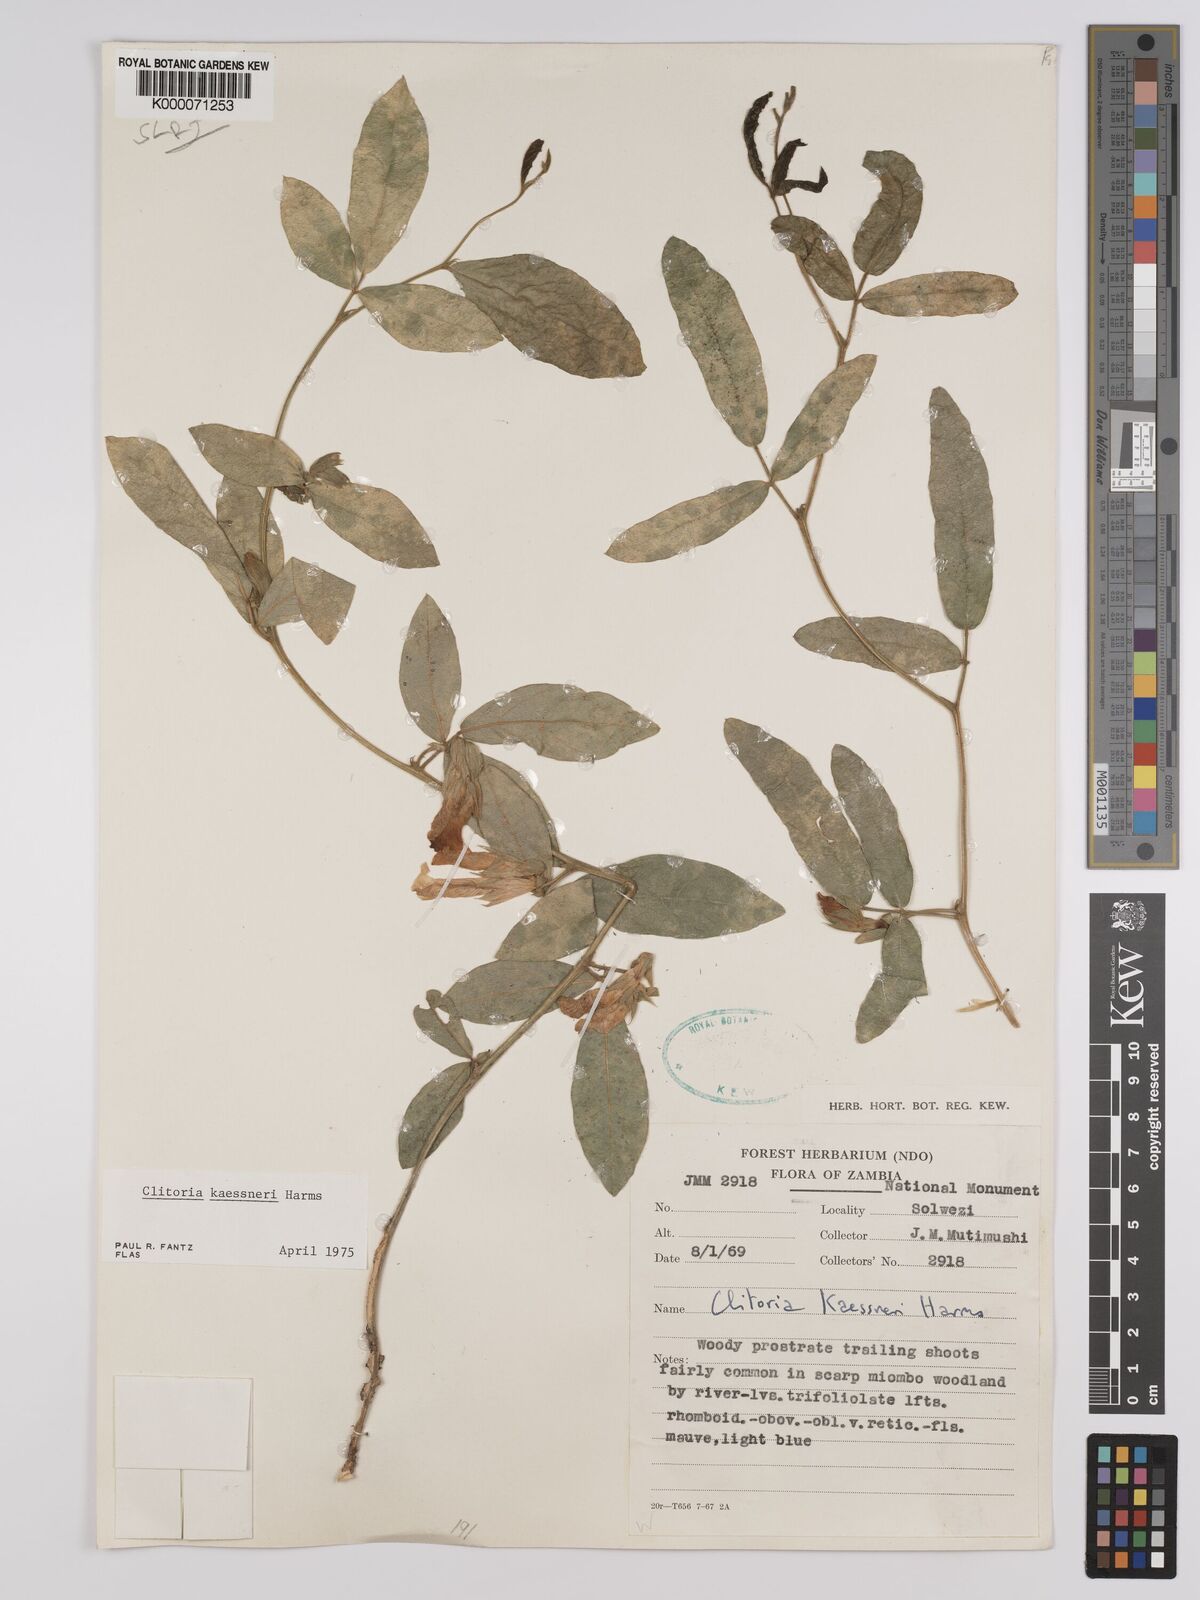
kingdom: Plantae
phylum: Tracheophyta
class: Magnoliopsida
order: Fabales
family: Fabaceae
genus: Clitoria
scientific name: Clitoria kaessneri
